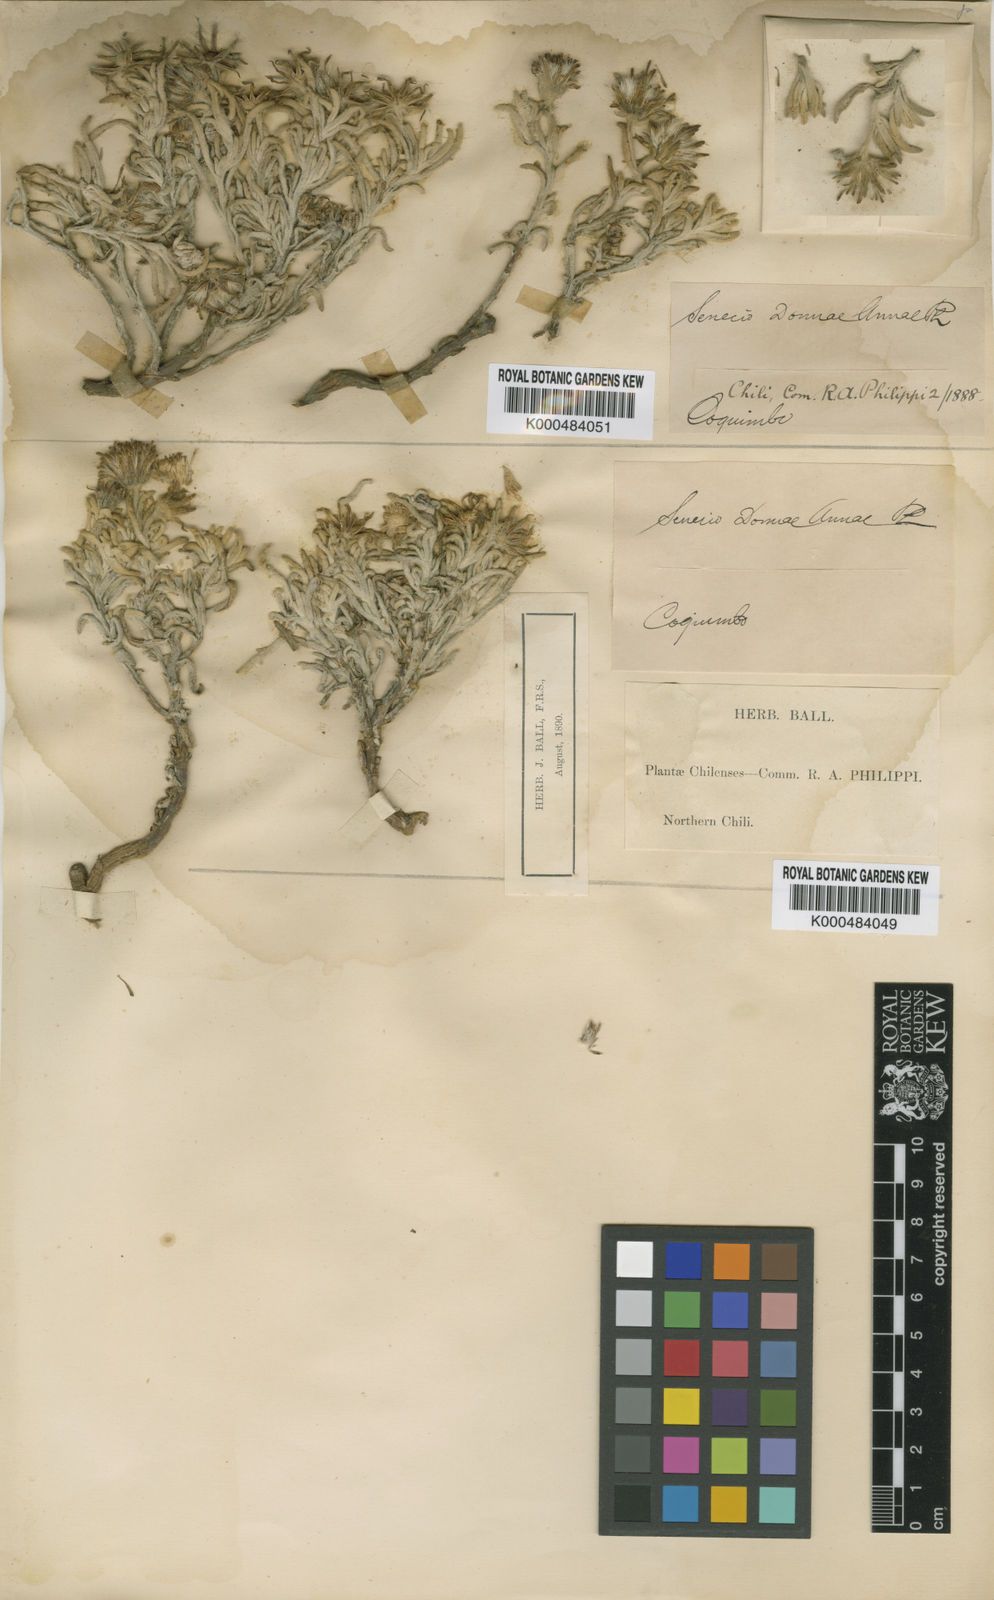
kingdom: Plantae
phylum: Tracheophyta
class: Magnoliopsida
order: Asterales
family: Asteraceae
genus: Senecio
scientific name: Senecio volckmannii
